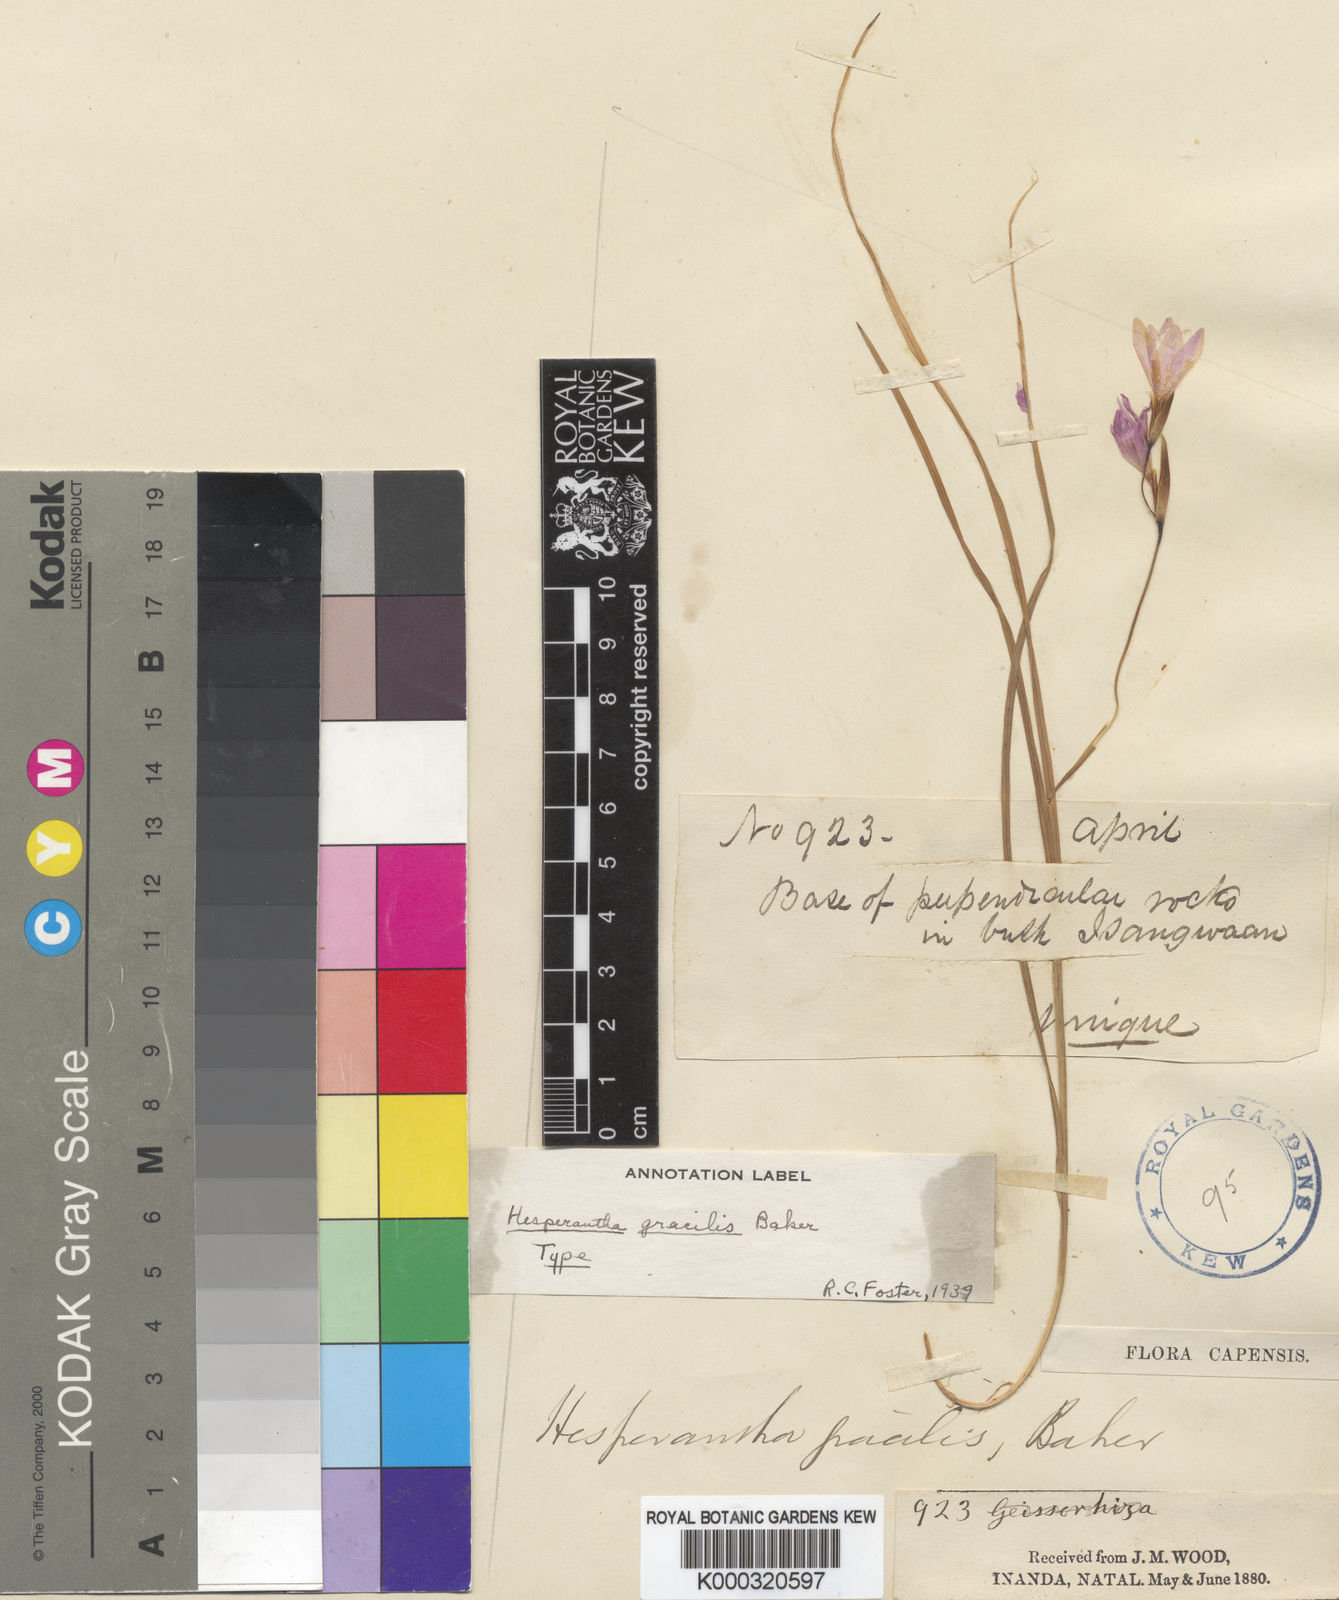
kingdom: Plantae
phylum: Tracheophyta
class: Liliopsida
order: Asparagales
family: Iridaceae
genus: Hesperantha
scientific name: Hesperantha gracilis
